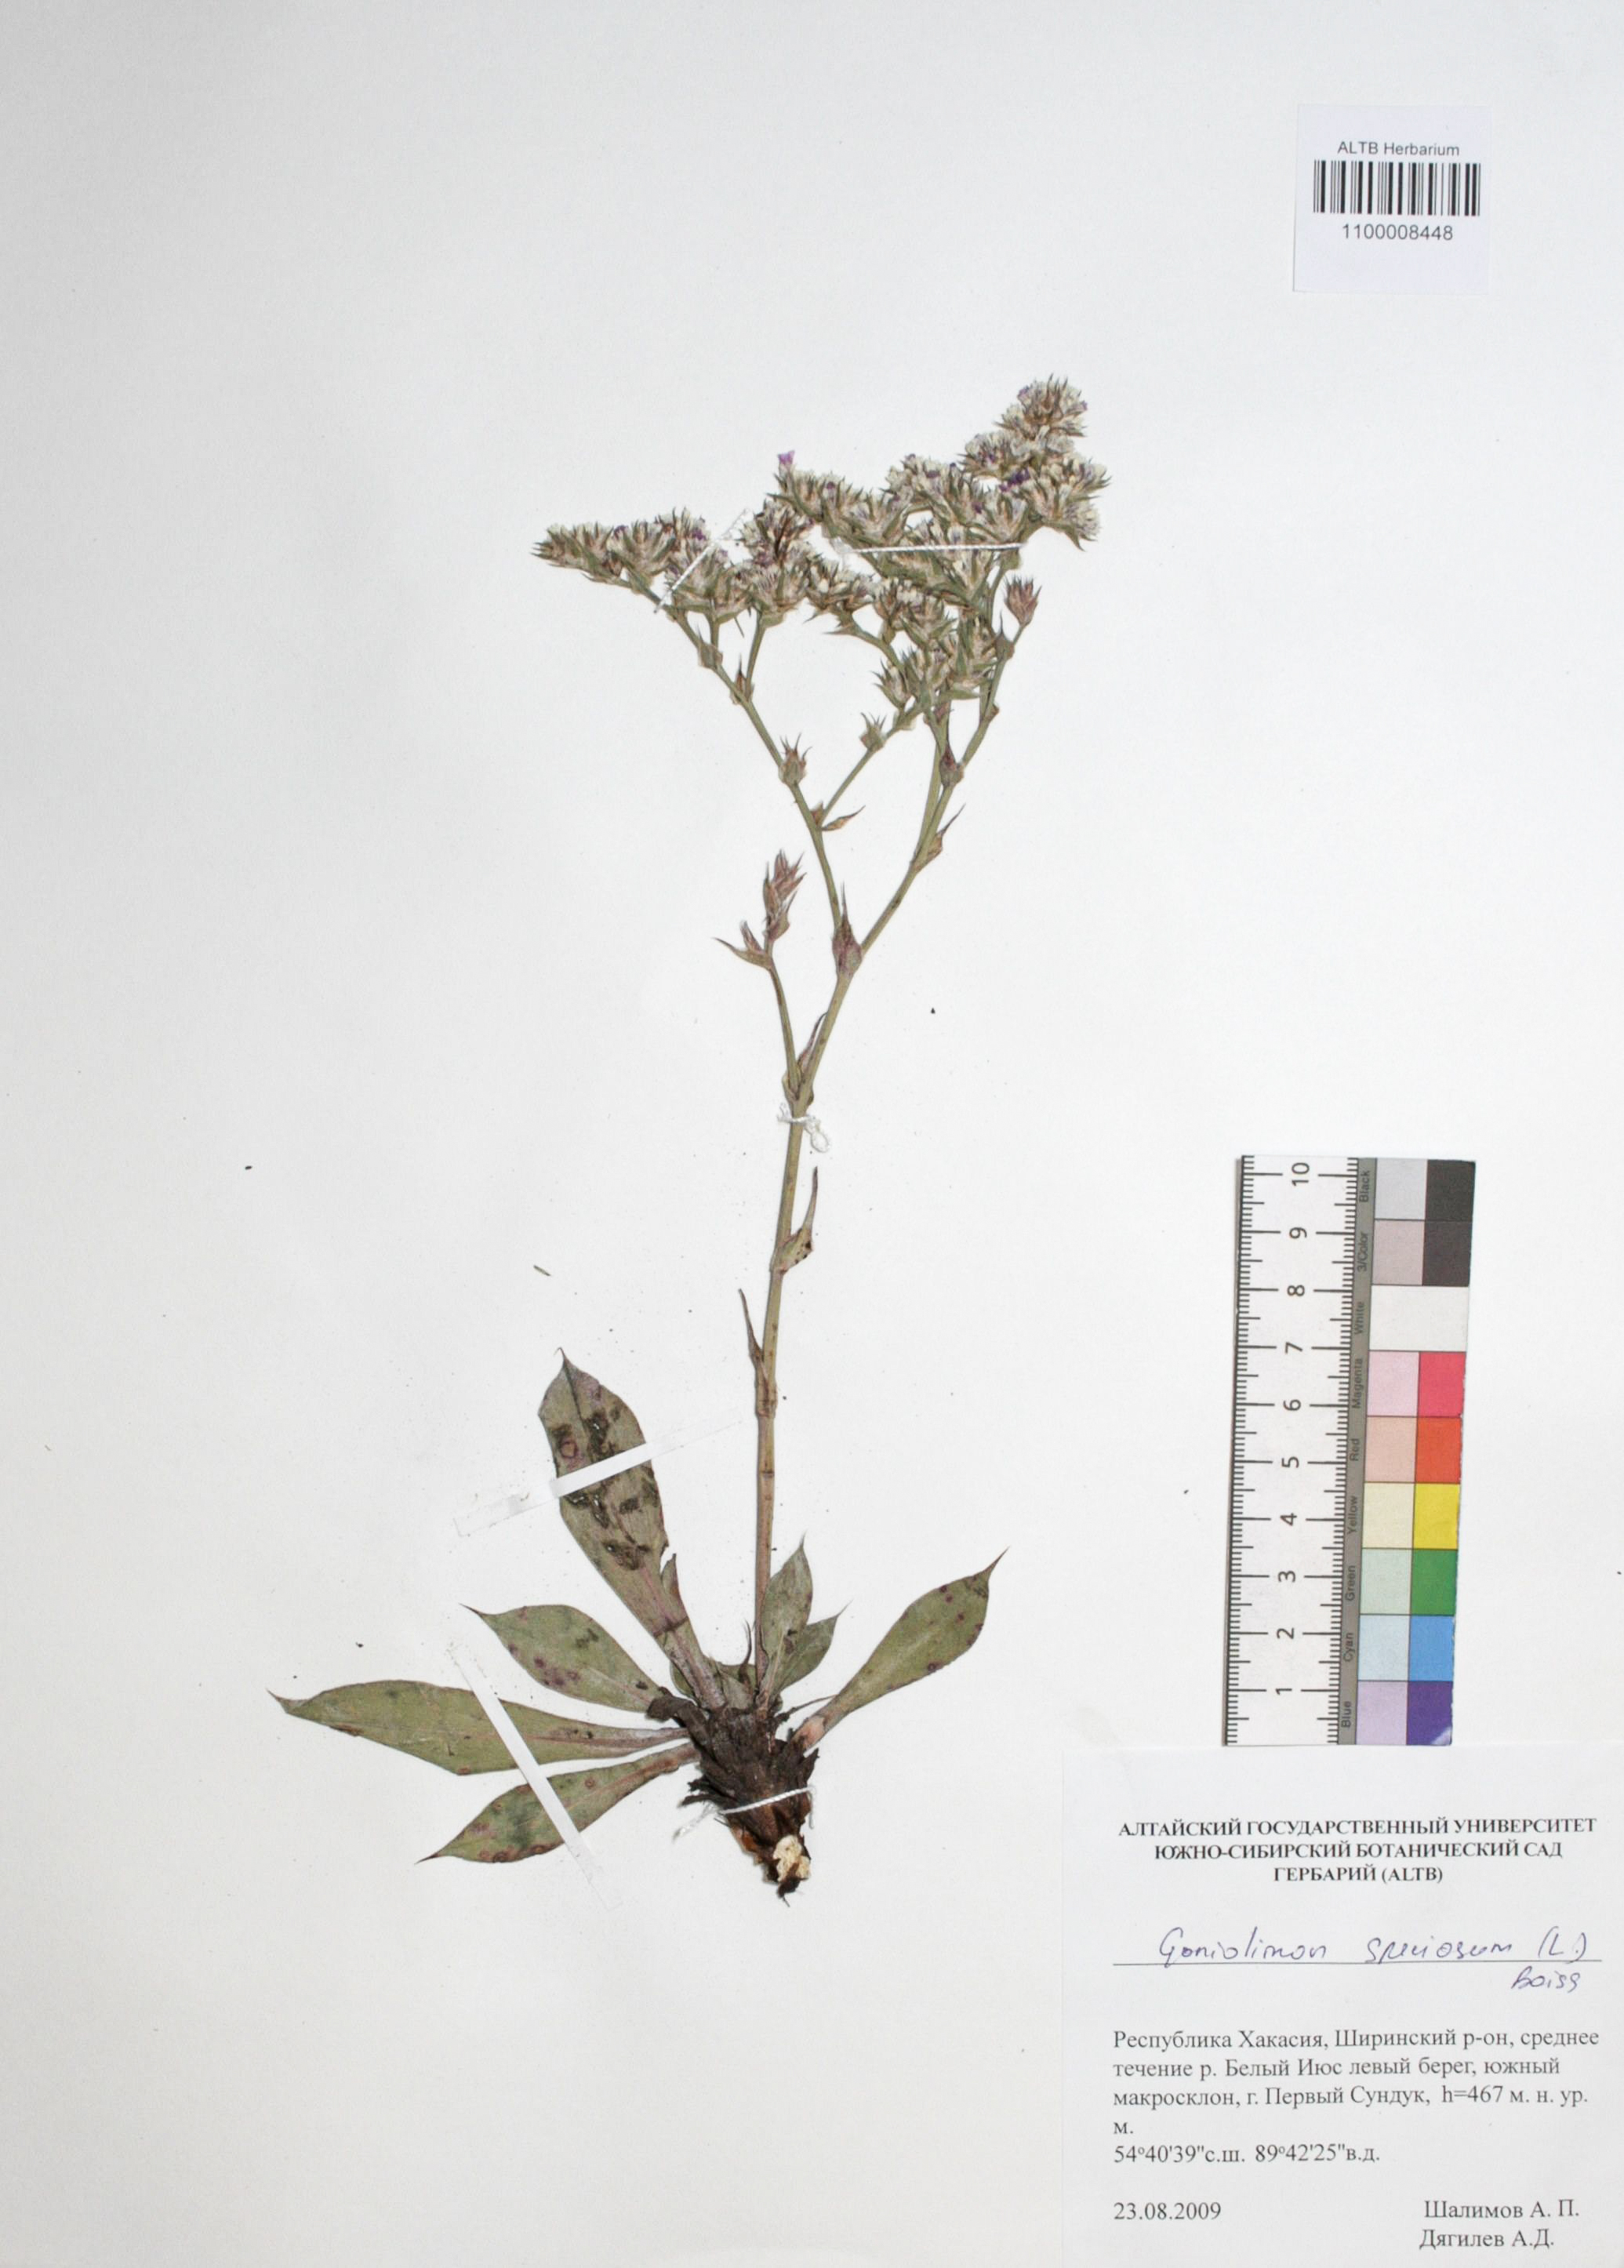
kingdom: Plantae
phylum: Tracheophyta
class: Magnoliopsida
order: Caryophyllales
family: Plumbaginaceae
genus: Goniolimon
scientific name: Goniolimon speciosum
